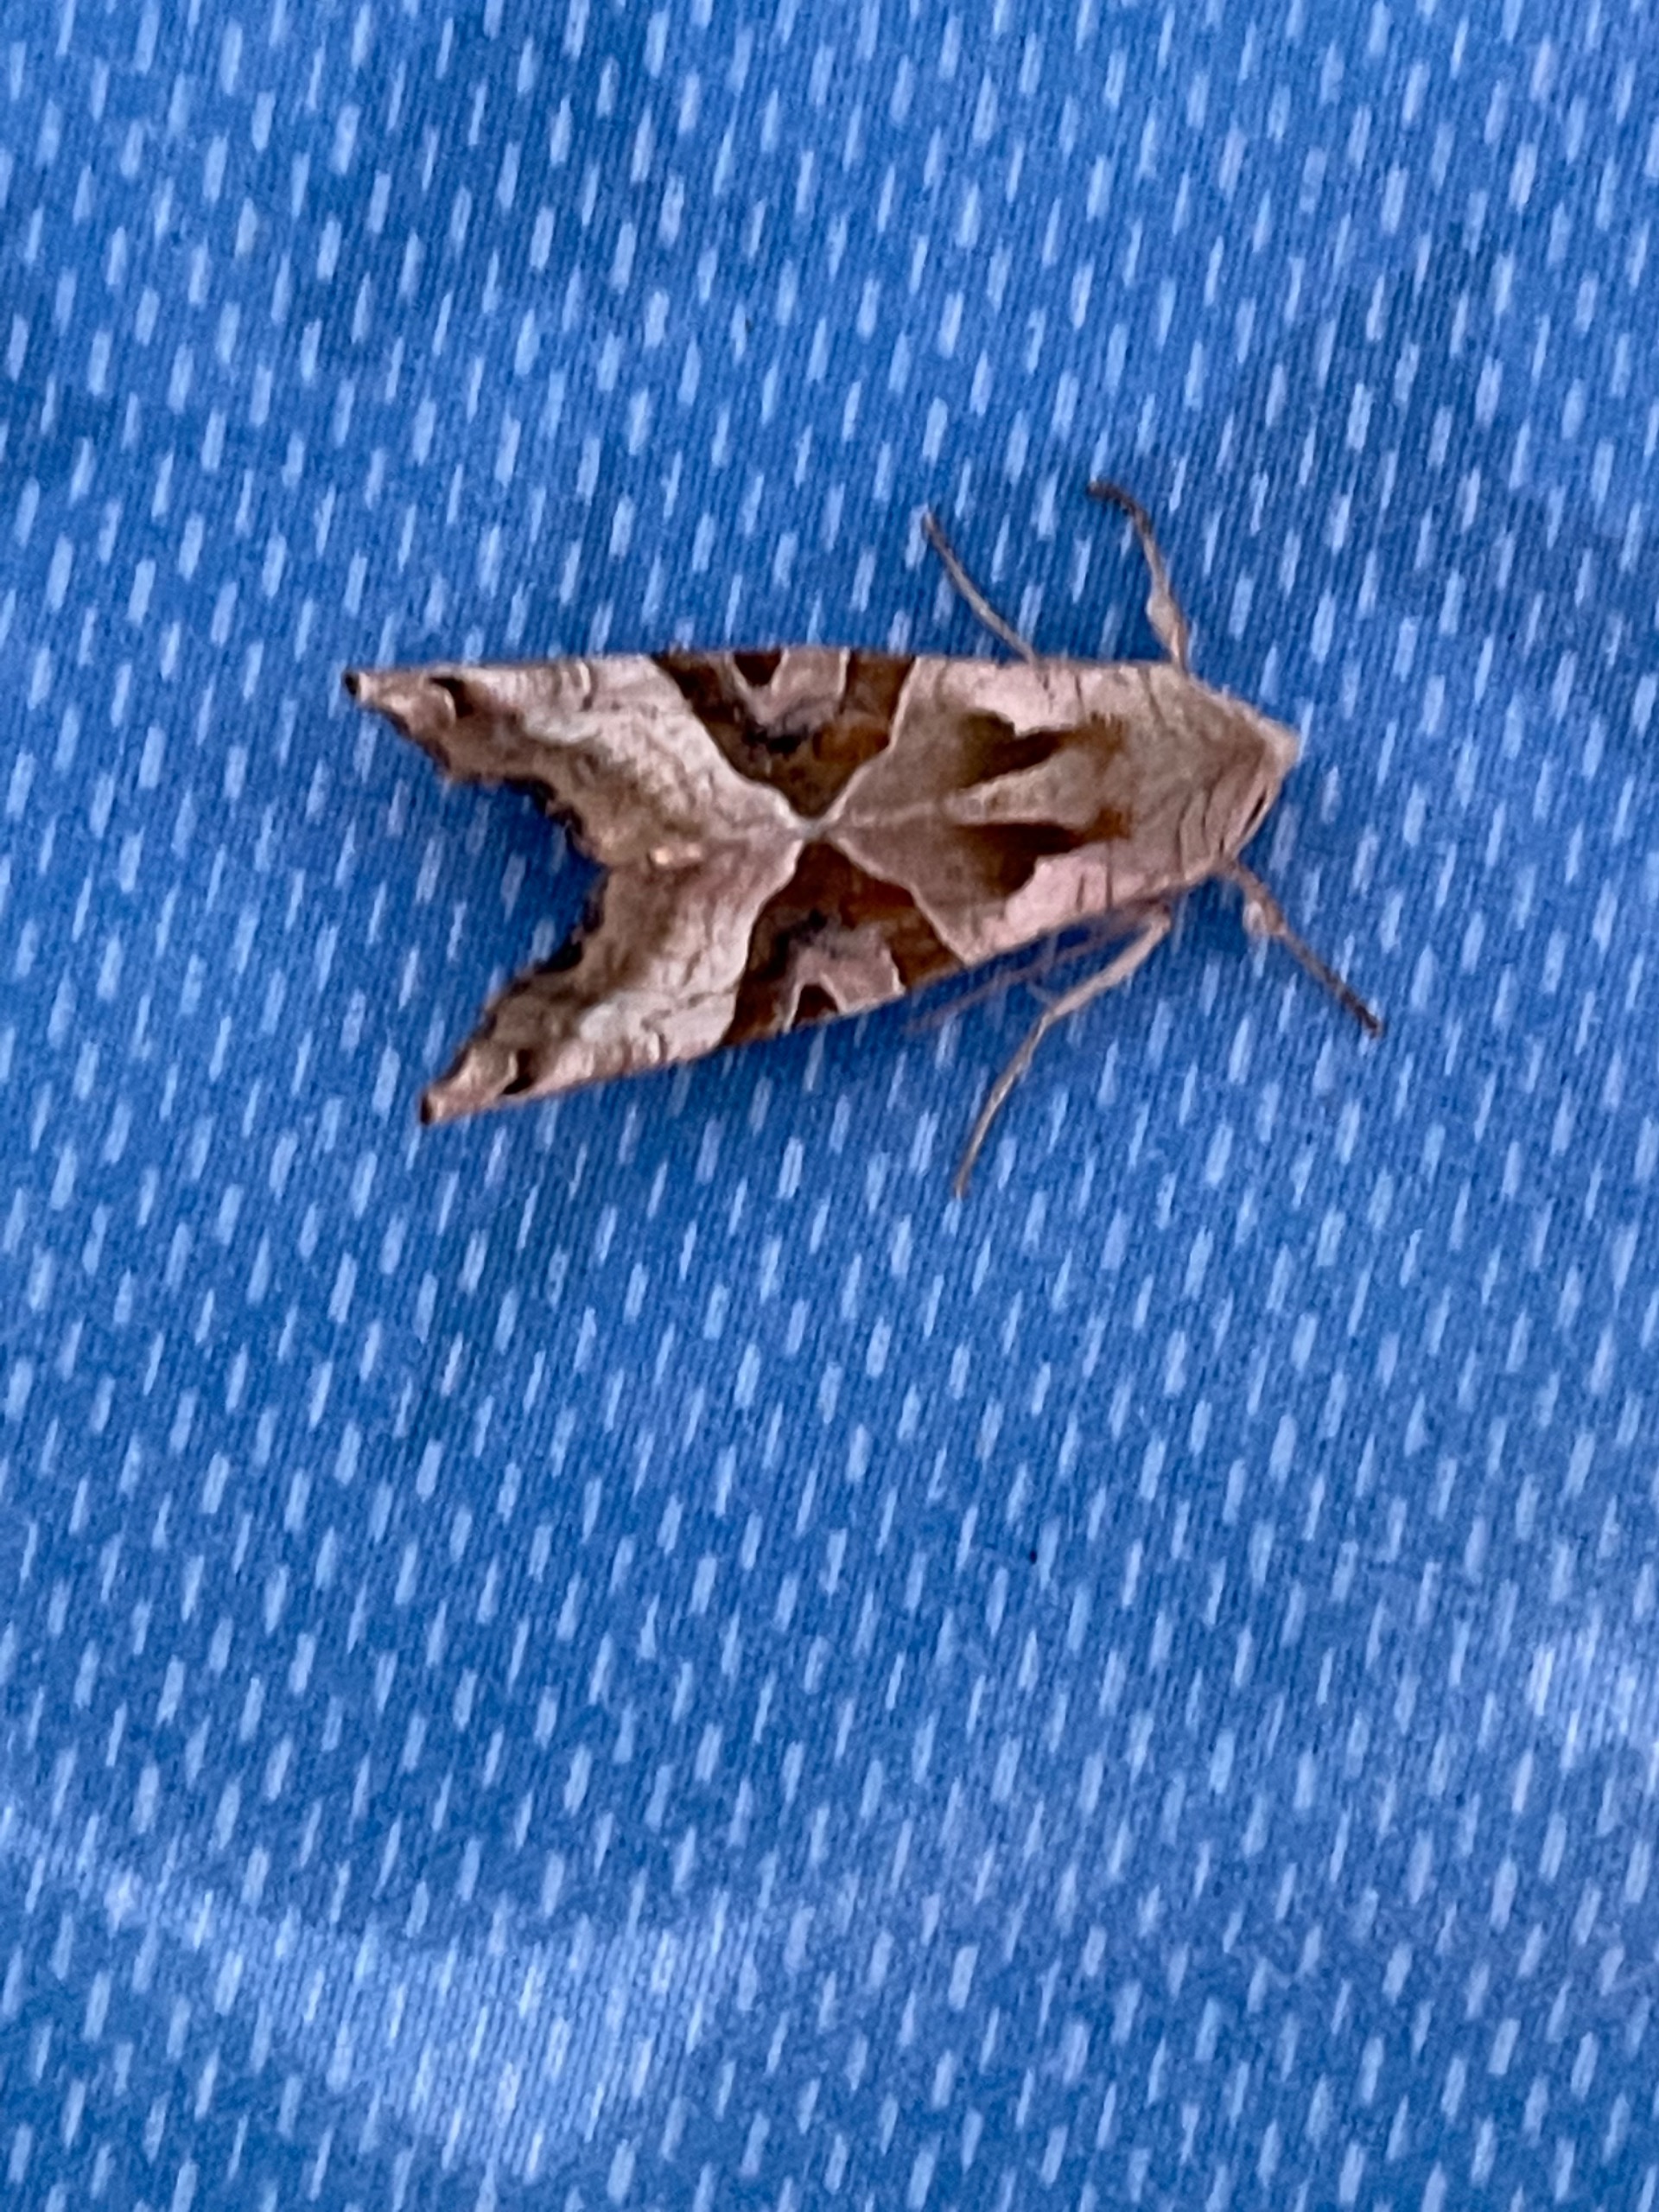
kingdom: Animalia
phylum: Arthropoda
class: Insecta
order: Lepidoptera
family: Noctuidae
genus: Phlogophora
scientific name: Phlogophora meticulosa
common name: Agatugle
